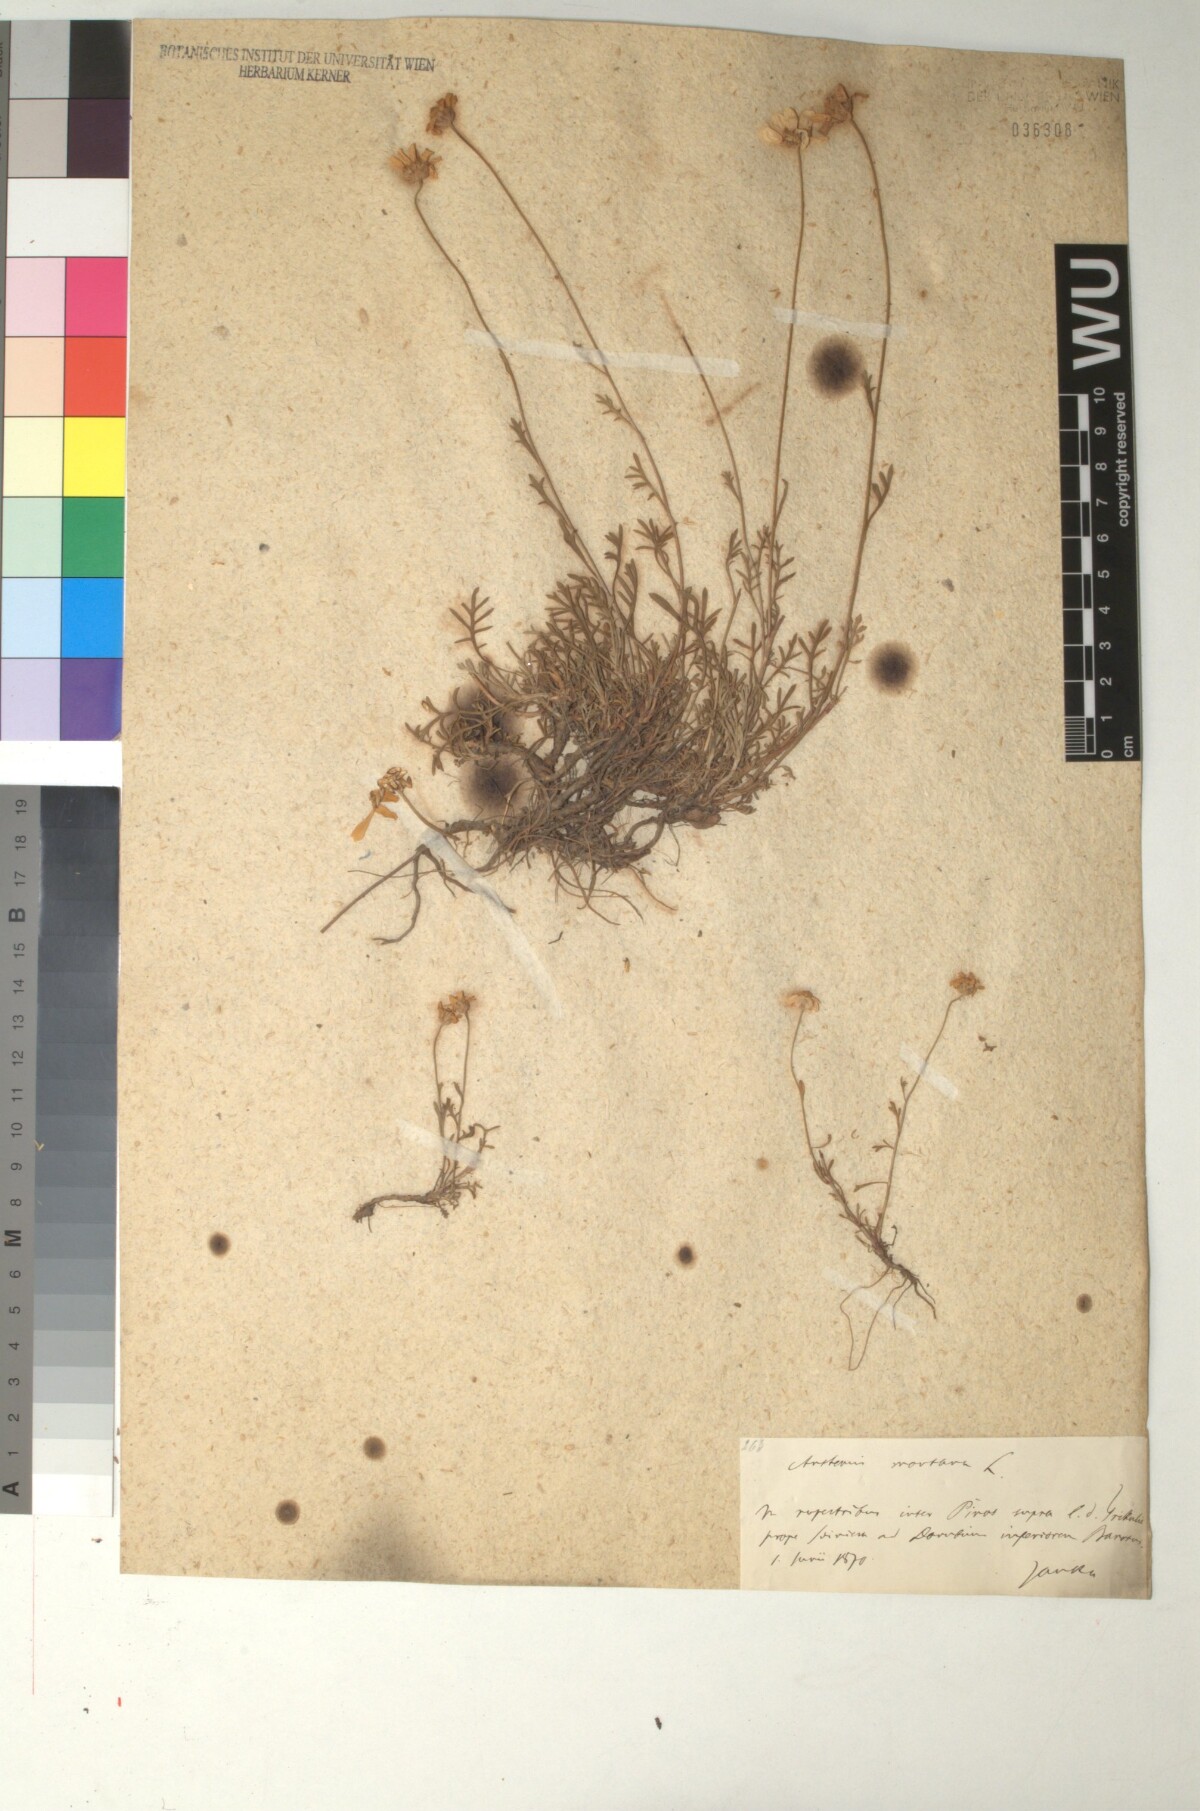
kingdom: Plantae
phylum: Tracheophyta
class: Magnoliopsida
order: Asterales
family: Asteraceae
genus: Anthemis
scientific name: Anthemis cretica
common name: Mountain dog-daisy
